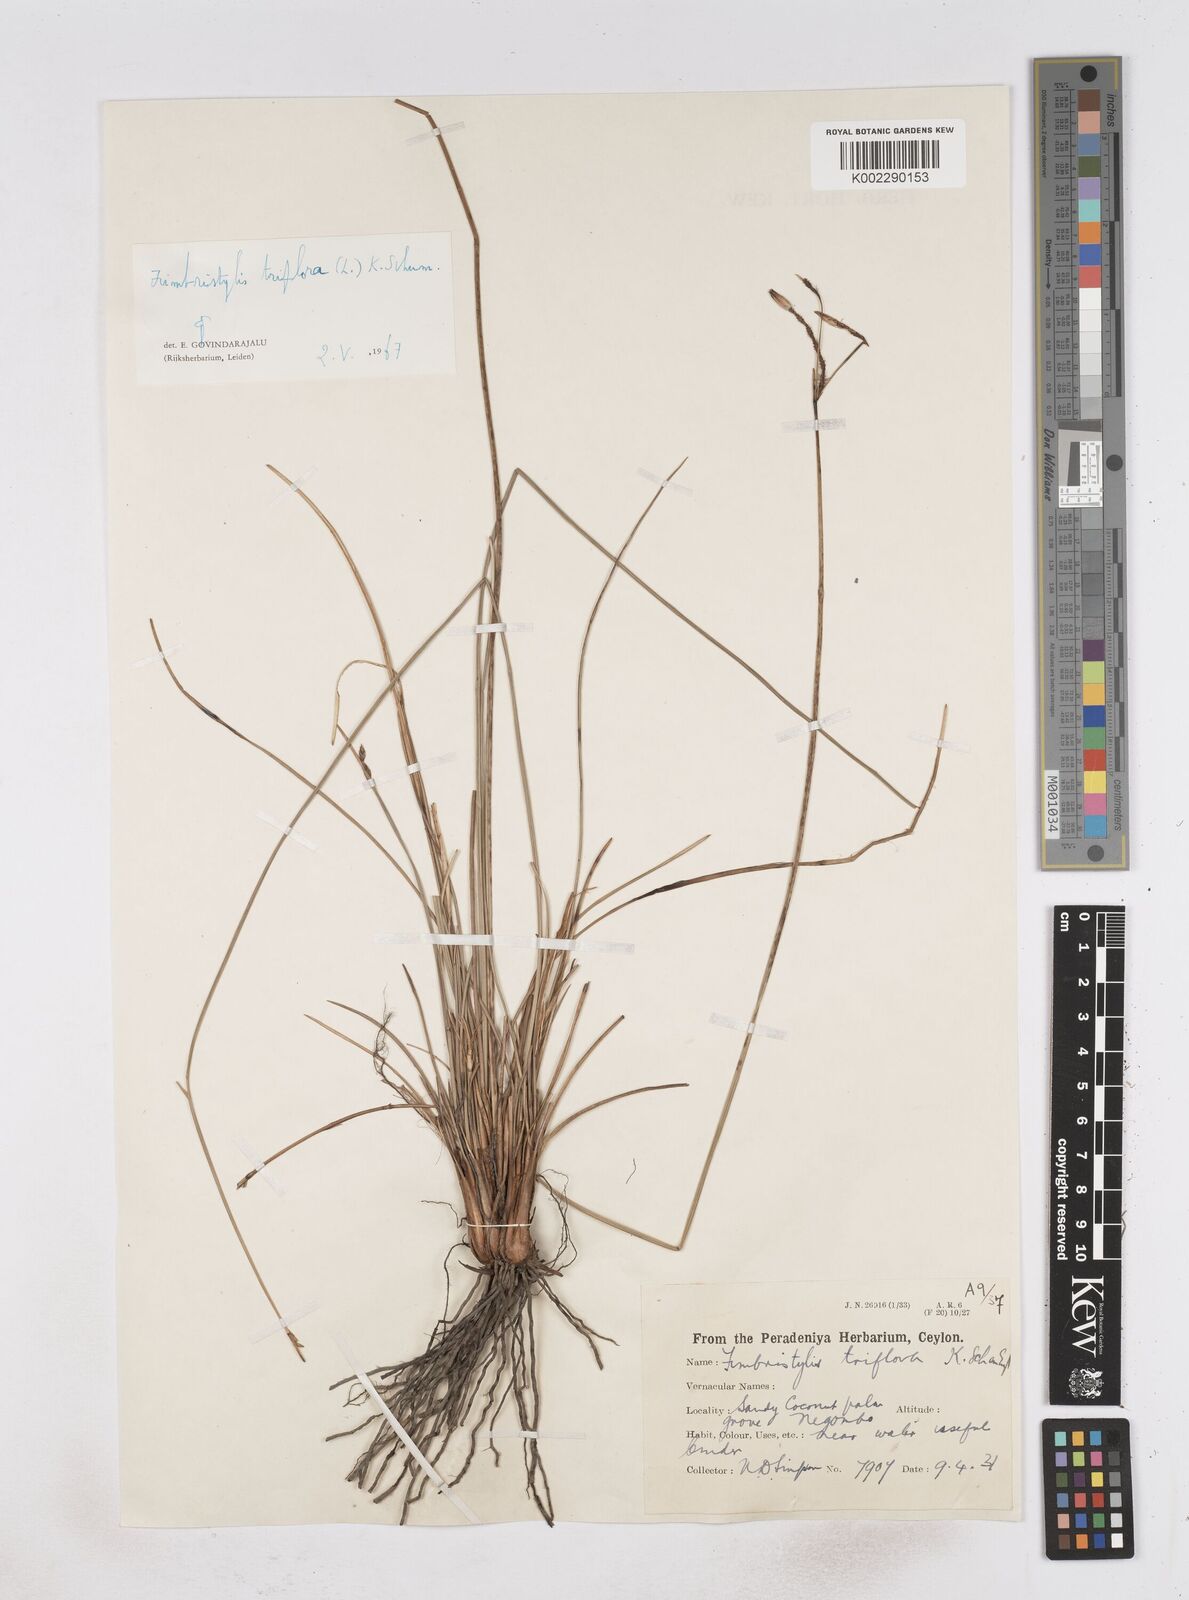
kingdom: Plantae
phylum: Tracheophyta
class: Liliopsida
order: Poales
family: Cyperaceae
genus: Abildgaardia
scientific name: Abildgaardia triflora
